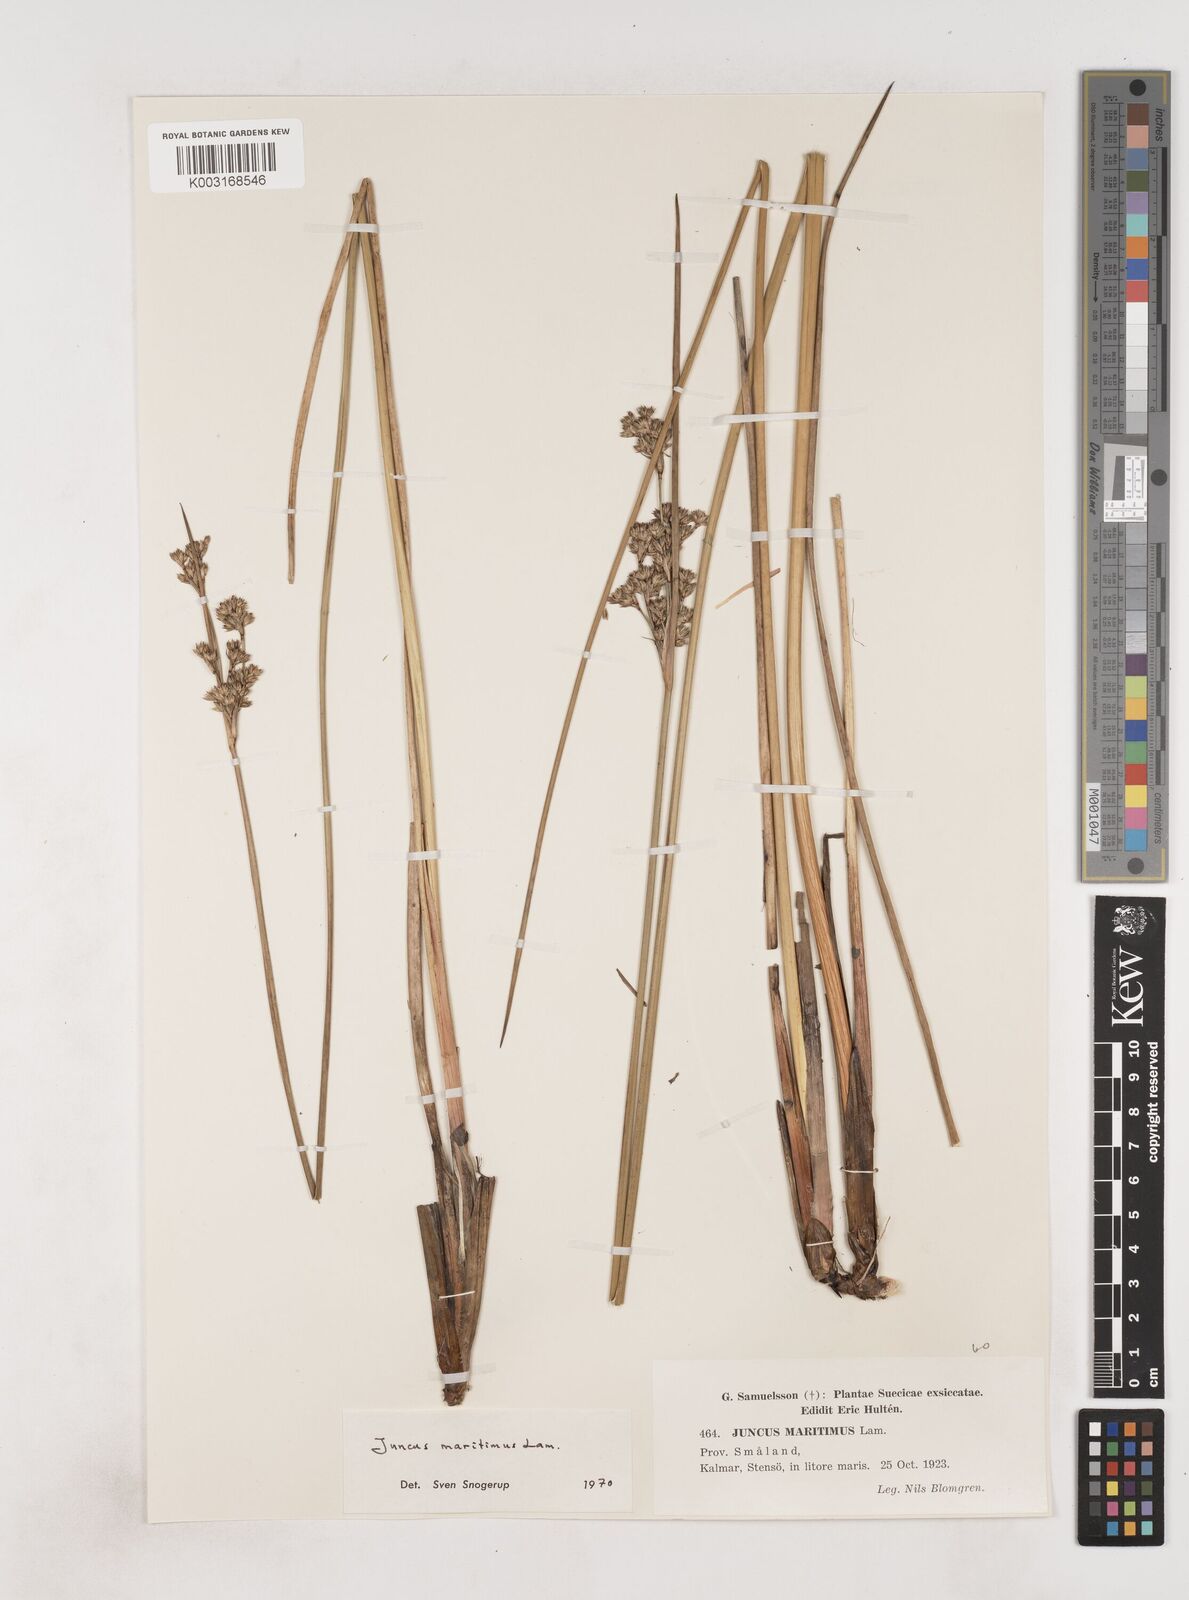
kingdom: Plantae
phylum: Tracheophyta
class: Liliopsida
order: Poales
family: Juncaceae
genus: Juncus
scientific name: Juncus maritimus
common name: Sea rush
